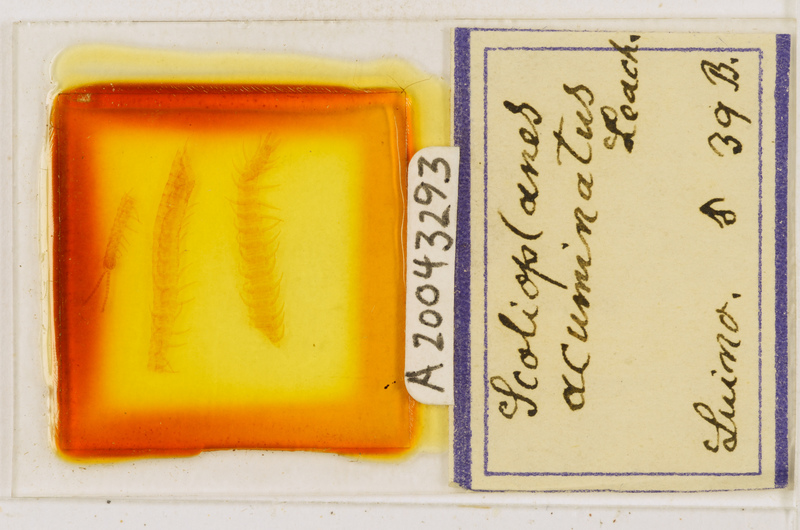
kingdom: Animalia
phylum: Arthropoda
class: Chilopoda
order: Geophilomorpha
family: Linotaeniidae
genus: Strigamia
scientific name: Strigamia acuminata
